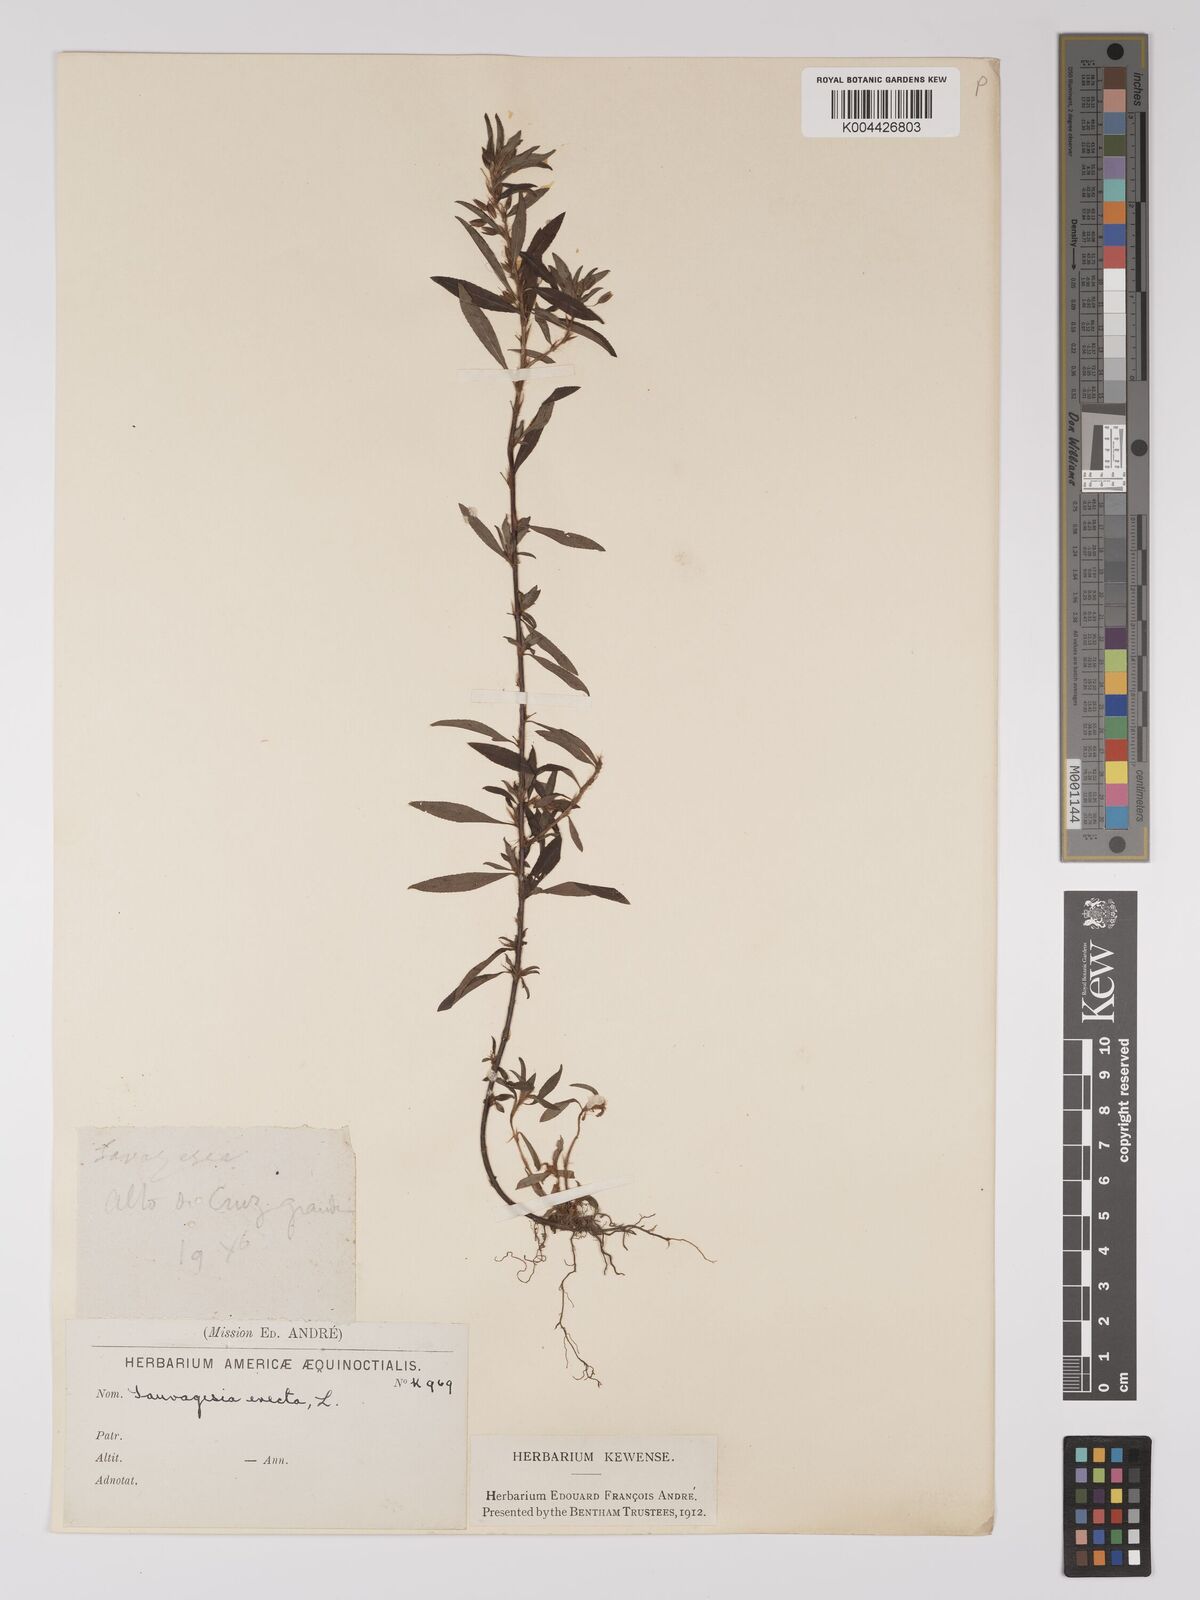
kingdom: Plantae
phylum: Tracheophyta
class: Magnoliopsida
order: Malpighiales
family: Ochnaceae
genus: Sauvagesia
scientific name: Sauvagesia erecta
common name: Creole tea
